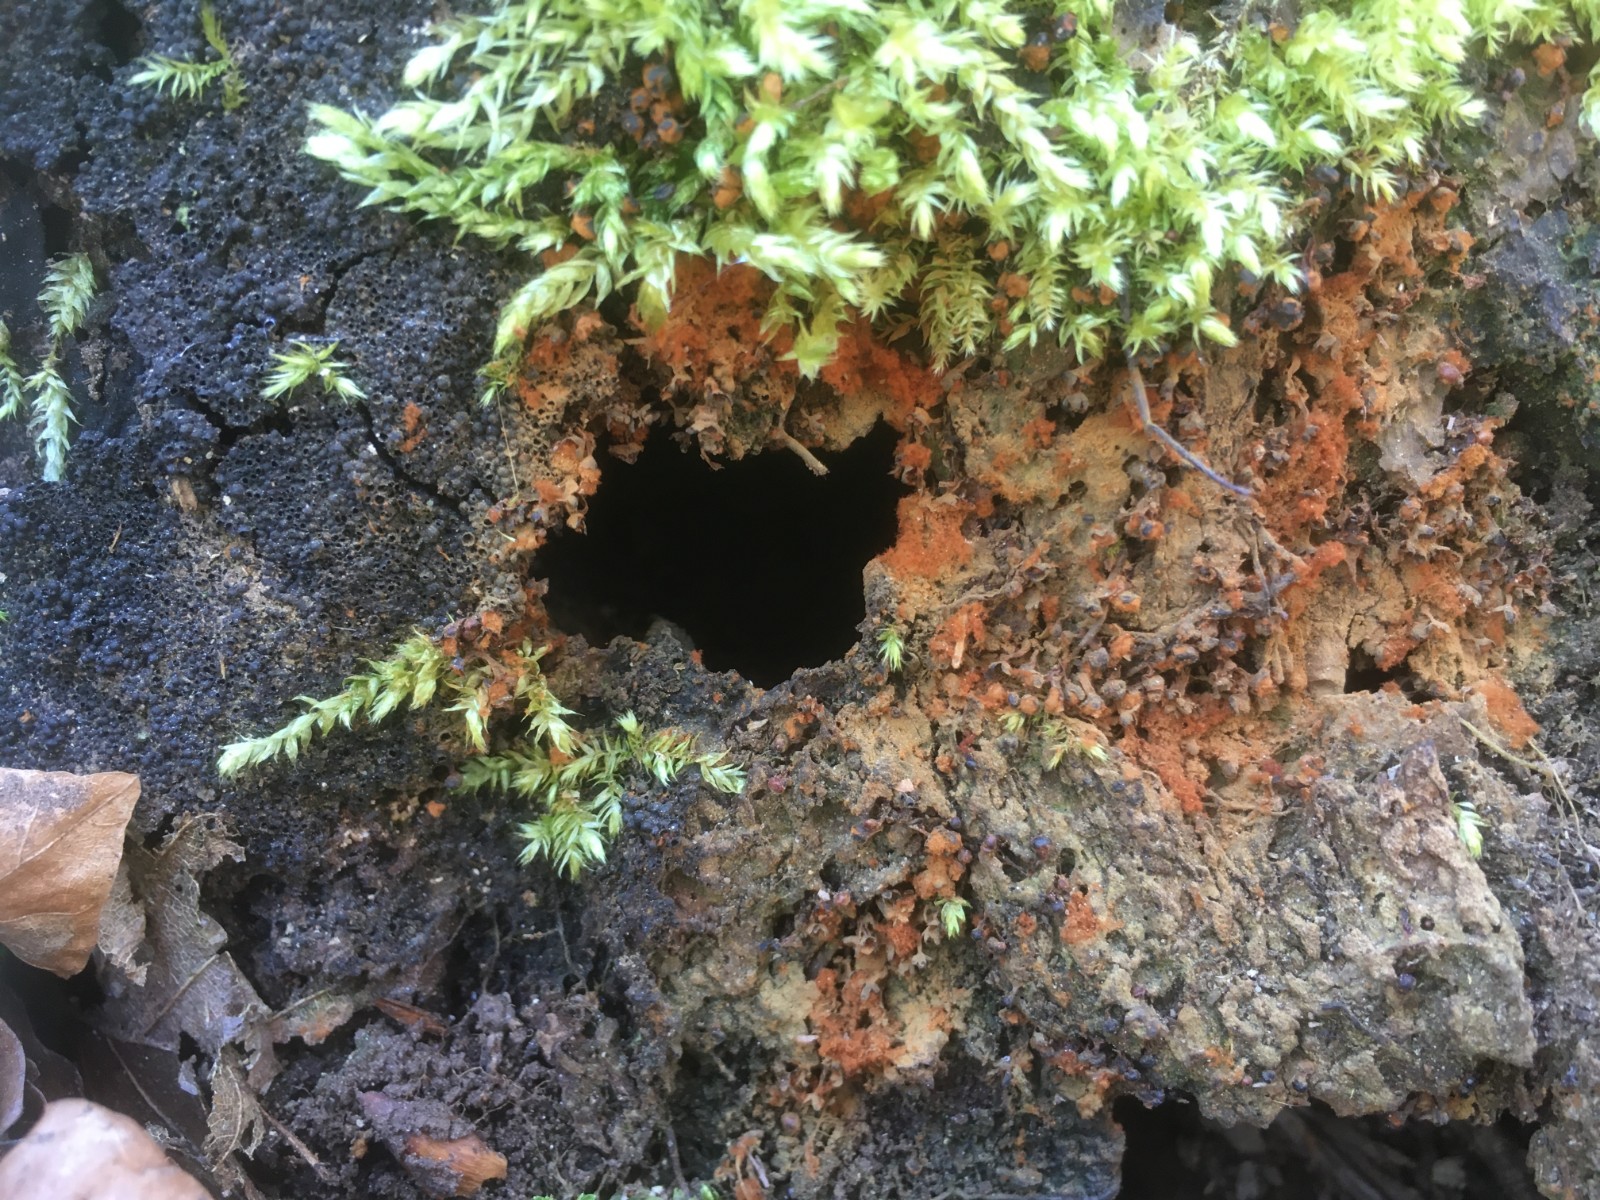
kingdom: Protozoa
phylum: Mycetozoa
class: Myxomycetes
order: Trichiales
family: Trichiaceae
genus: Metatrichia
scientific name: Metatrichia floriformis
